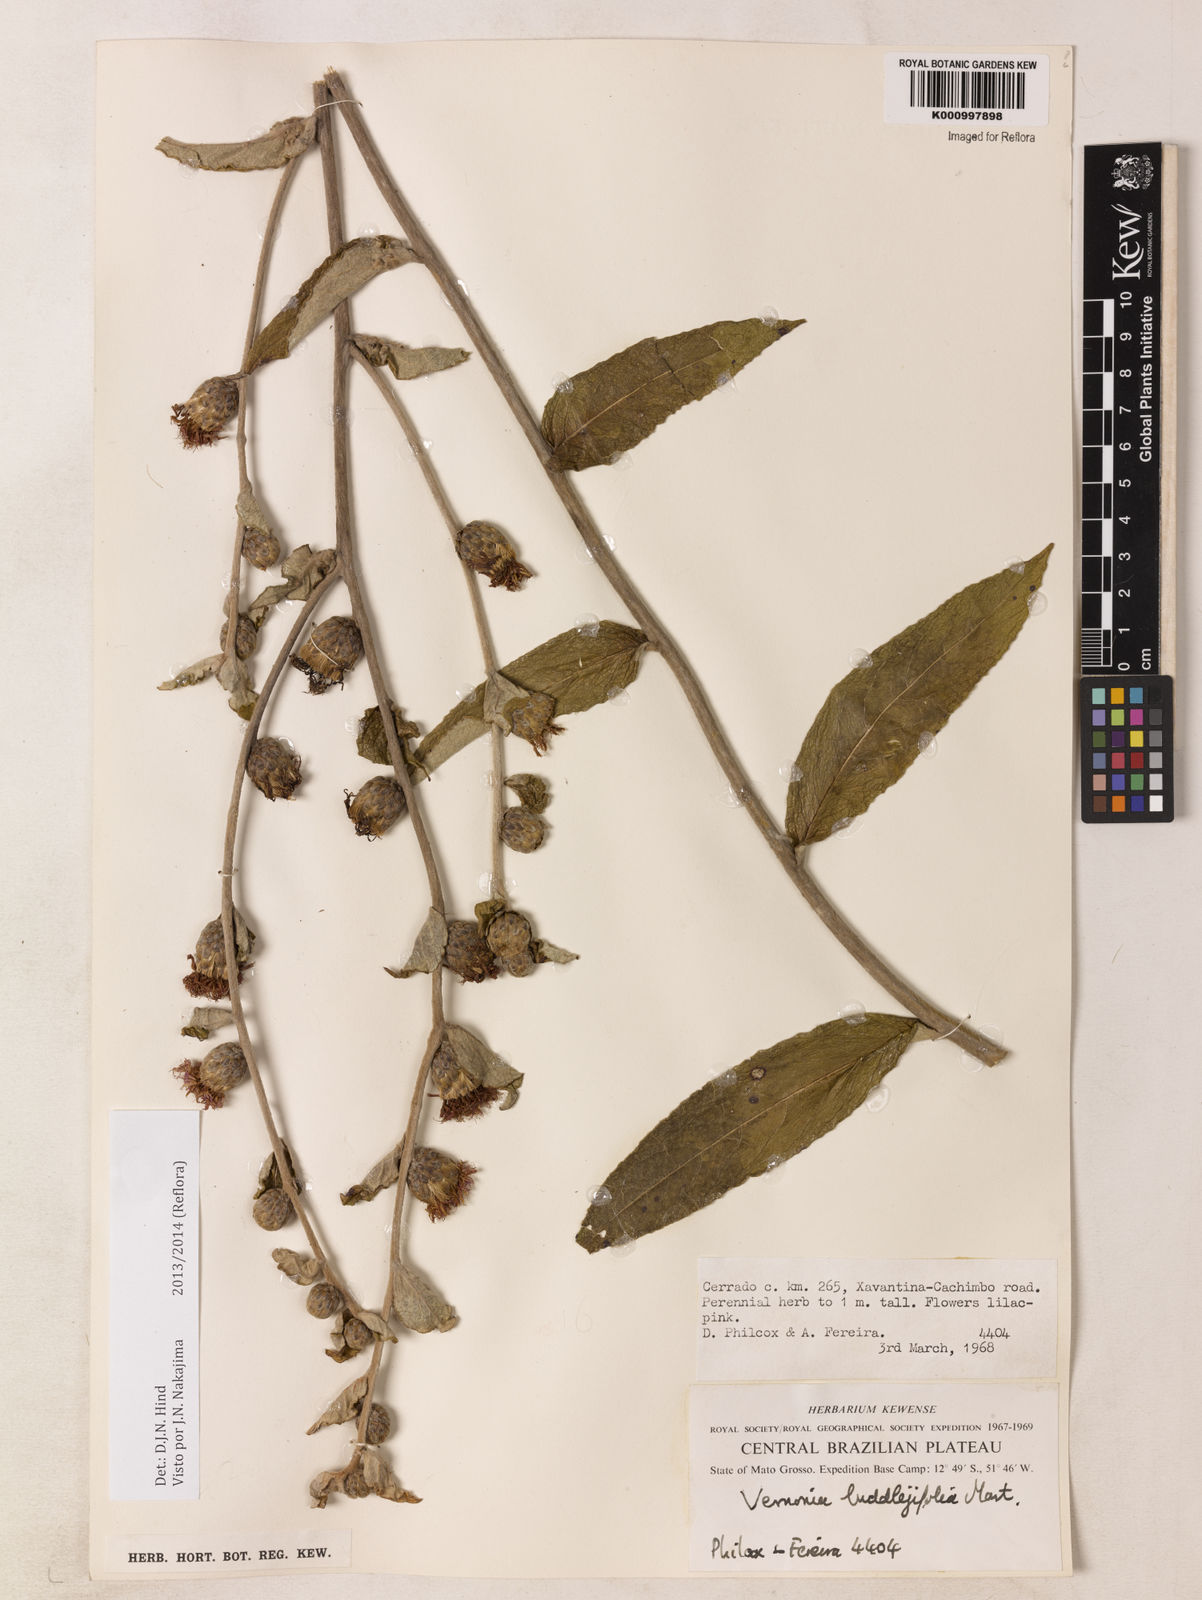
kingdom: Plantae
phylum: Tracheophyta
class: Magnoliopsida
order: Asterales
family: Asteraceae
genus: Lessingianthus
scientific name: Lessingianthus buddlejifolius
